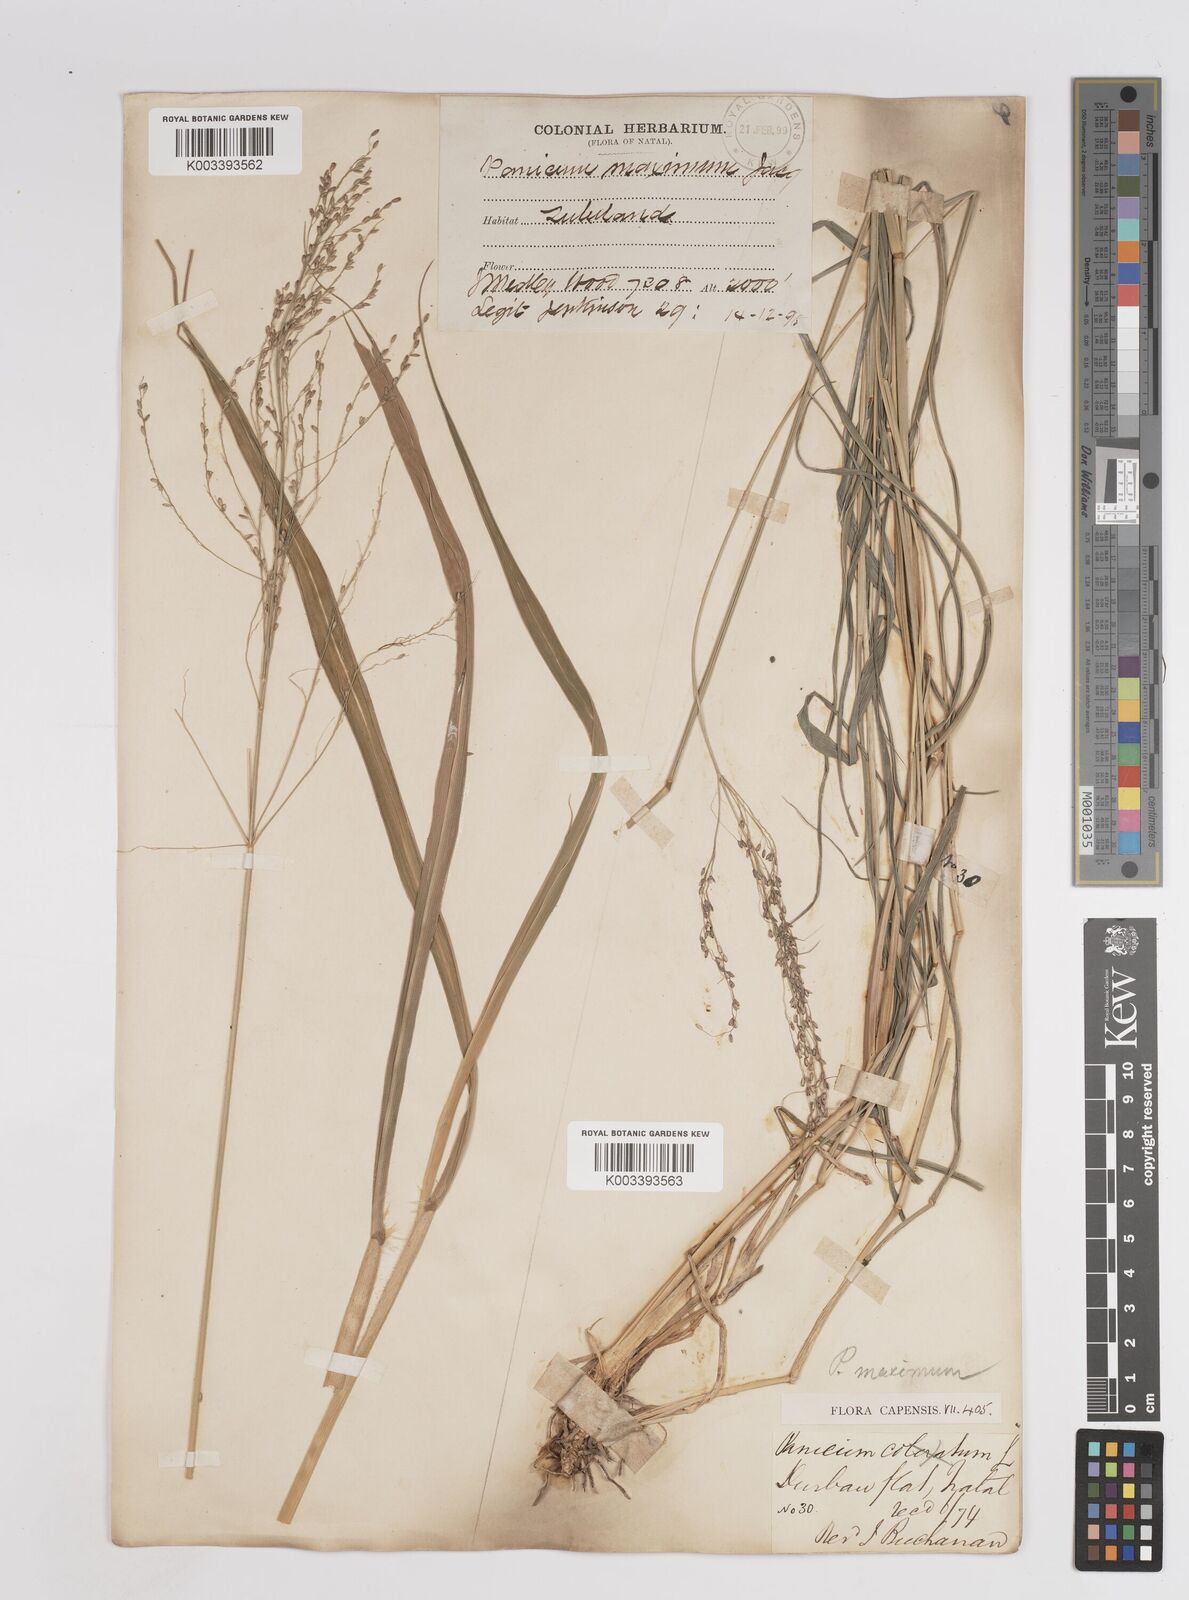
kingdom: Plantae
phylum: Tracheophyta
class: Liliopsida
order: Poales
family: Poaceae
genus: Megathyrsus
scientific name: Megathyrsus maximus
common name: Guineagrass
